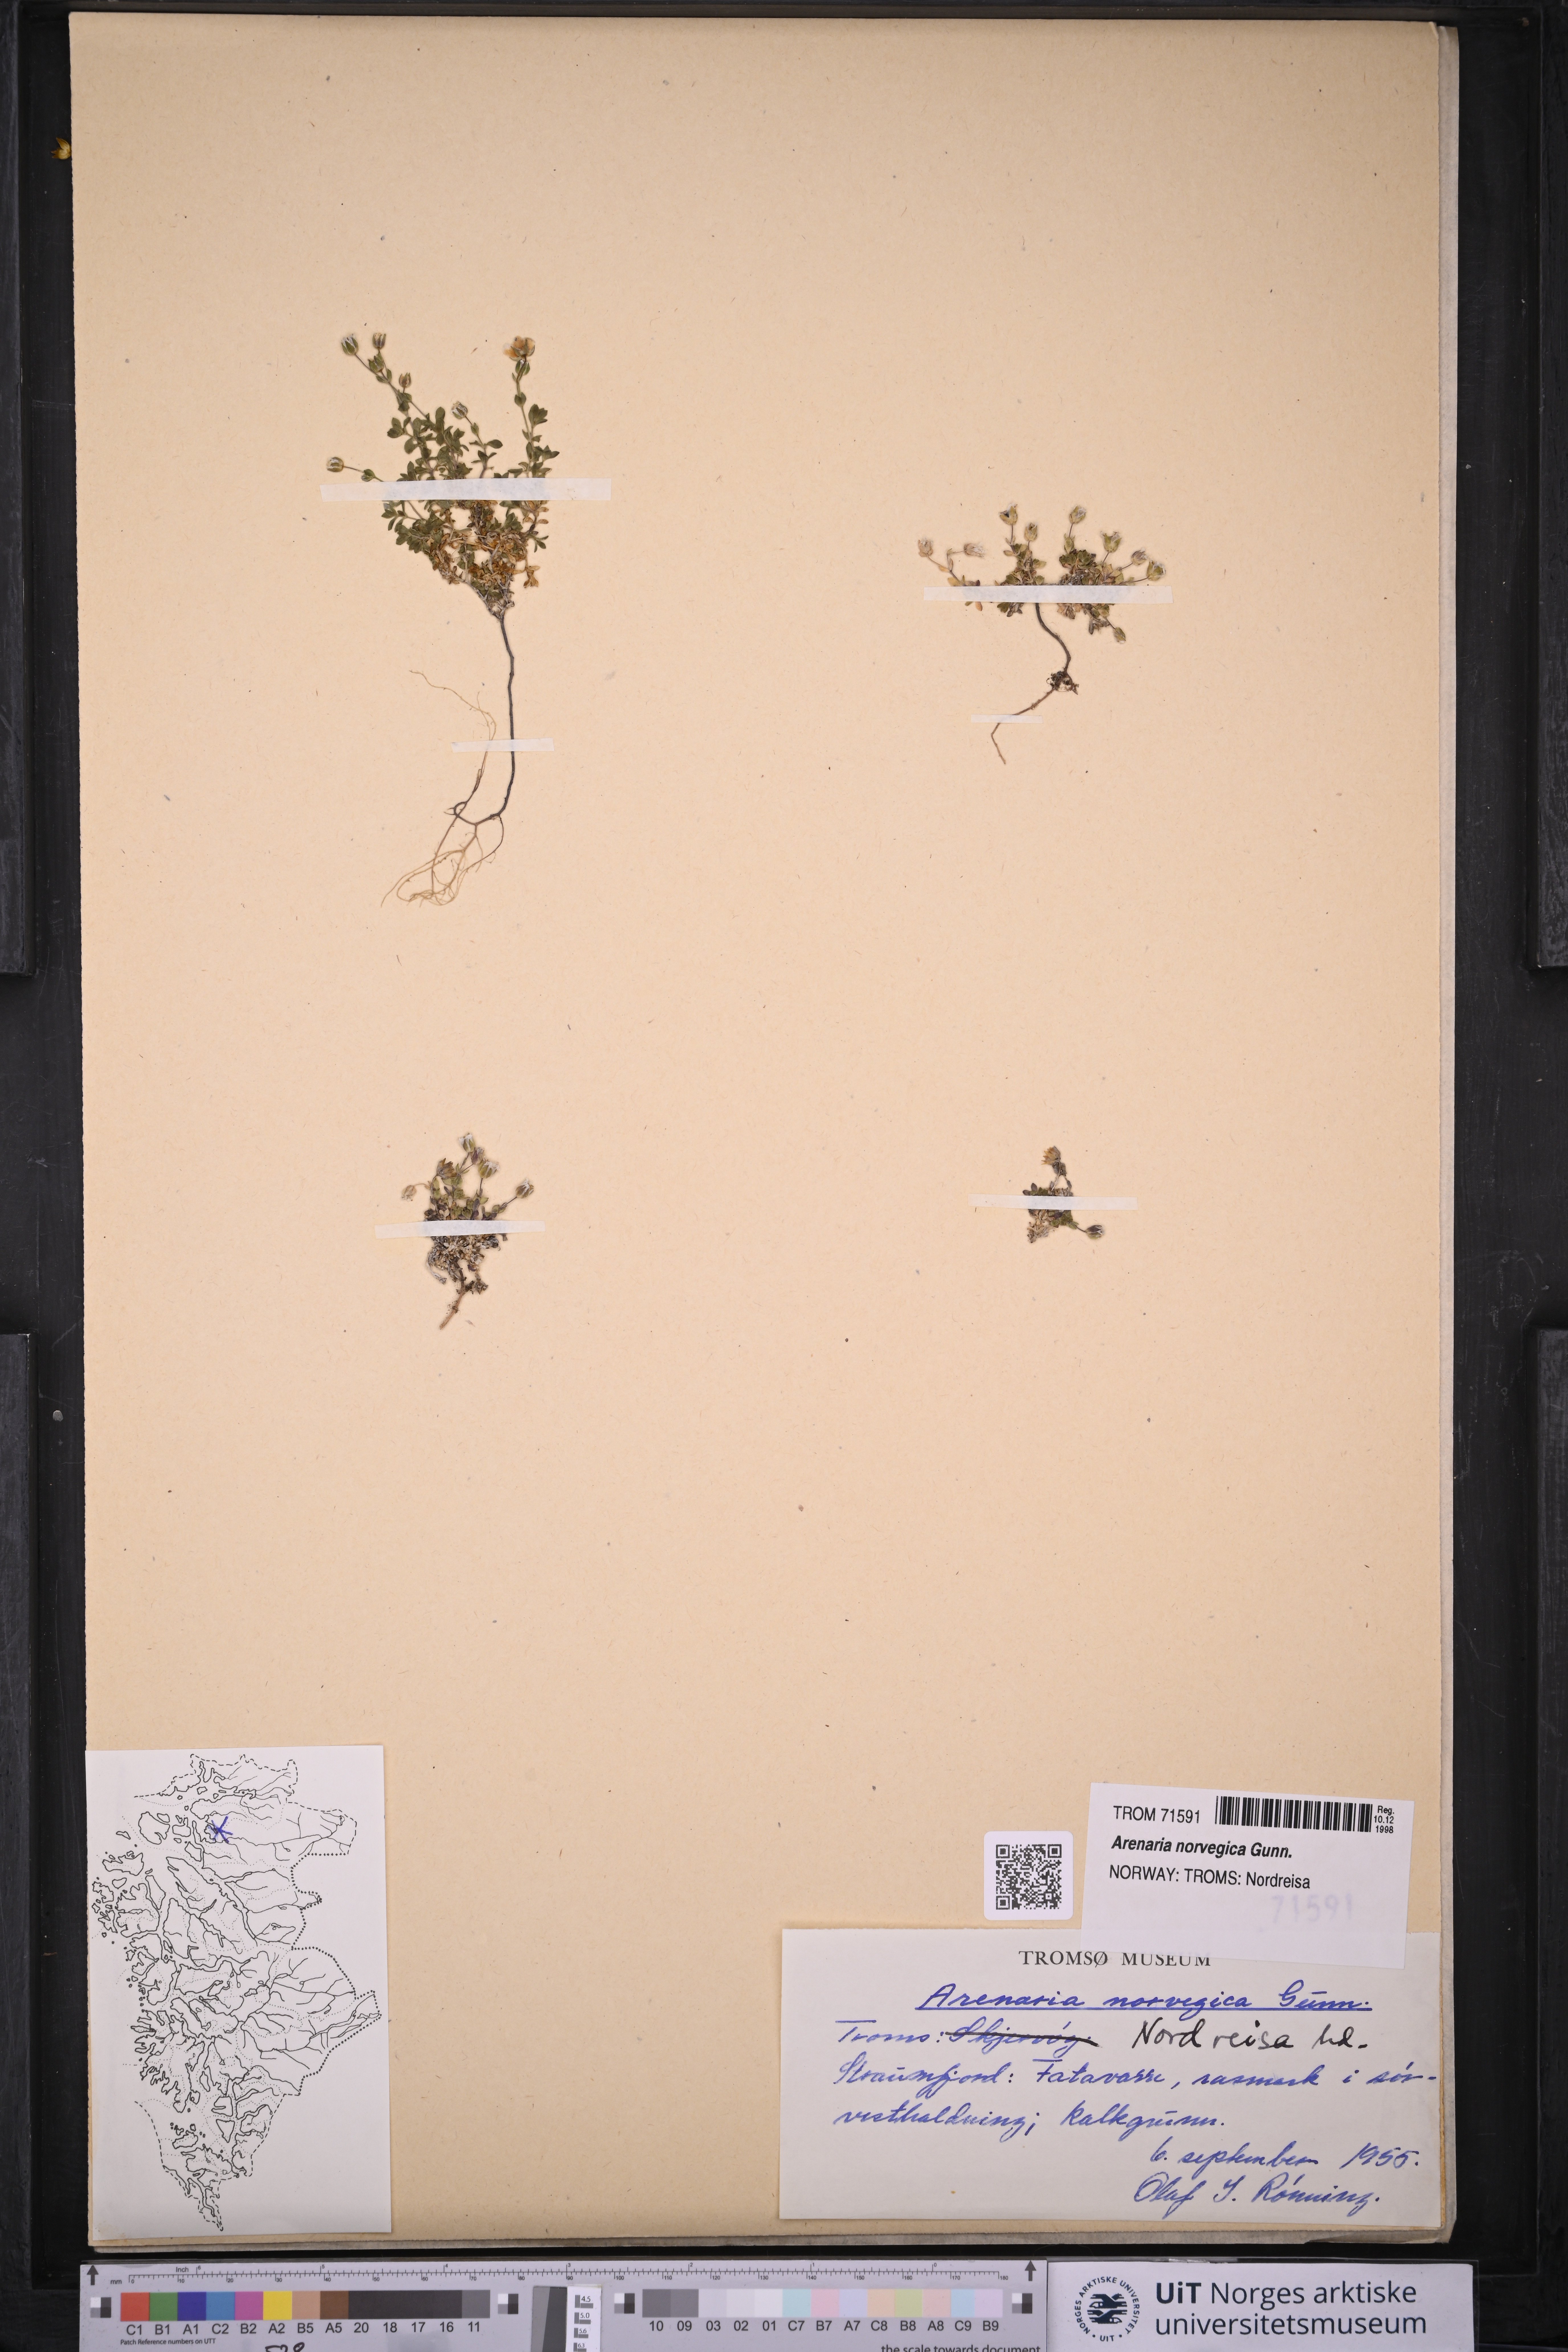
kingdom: Plantae
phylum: Tracheophyta
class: Magnoliopsida
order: Caryophyllales
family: Caryophyllaceae
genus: Arenaria
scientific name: Arenaria norvegica
